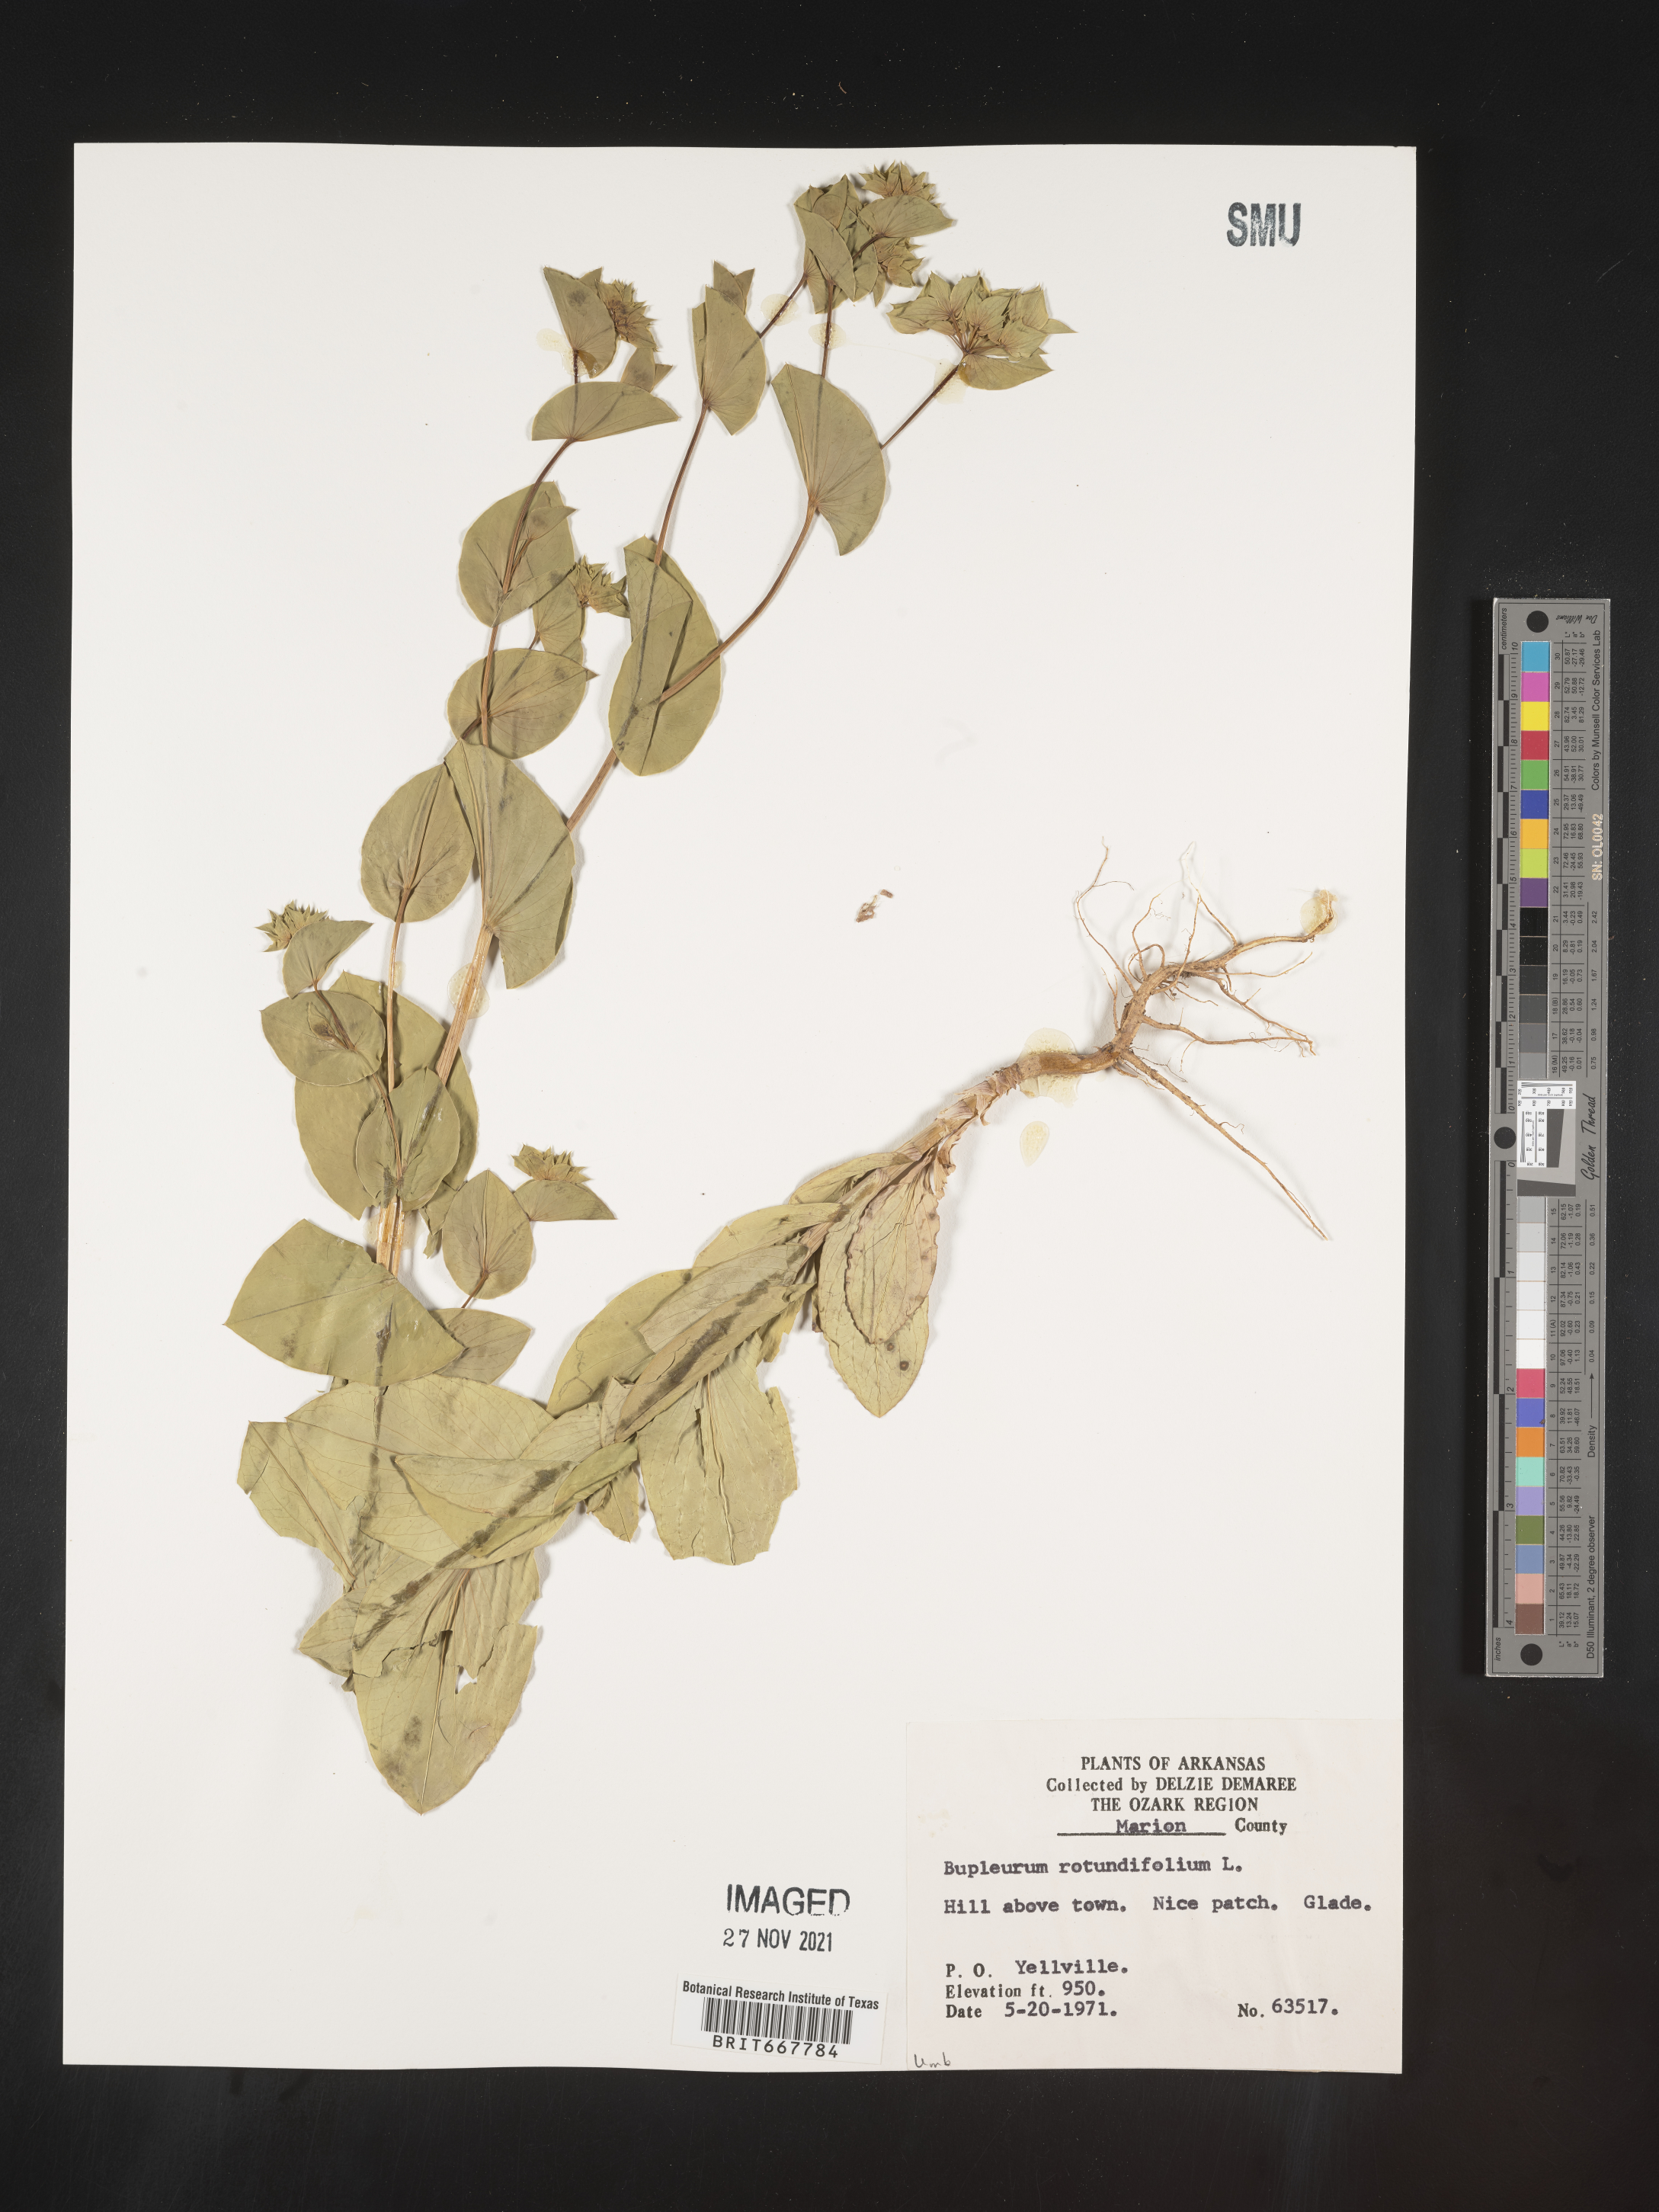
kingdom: Plantae
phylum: Tracheophyta
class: Magnoliopsida
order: Apiales
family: Apiaceae
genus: Bupleurum
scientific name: Bupleurum
